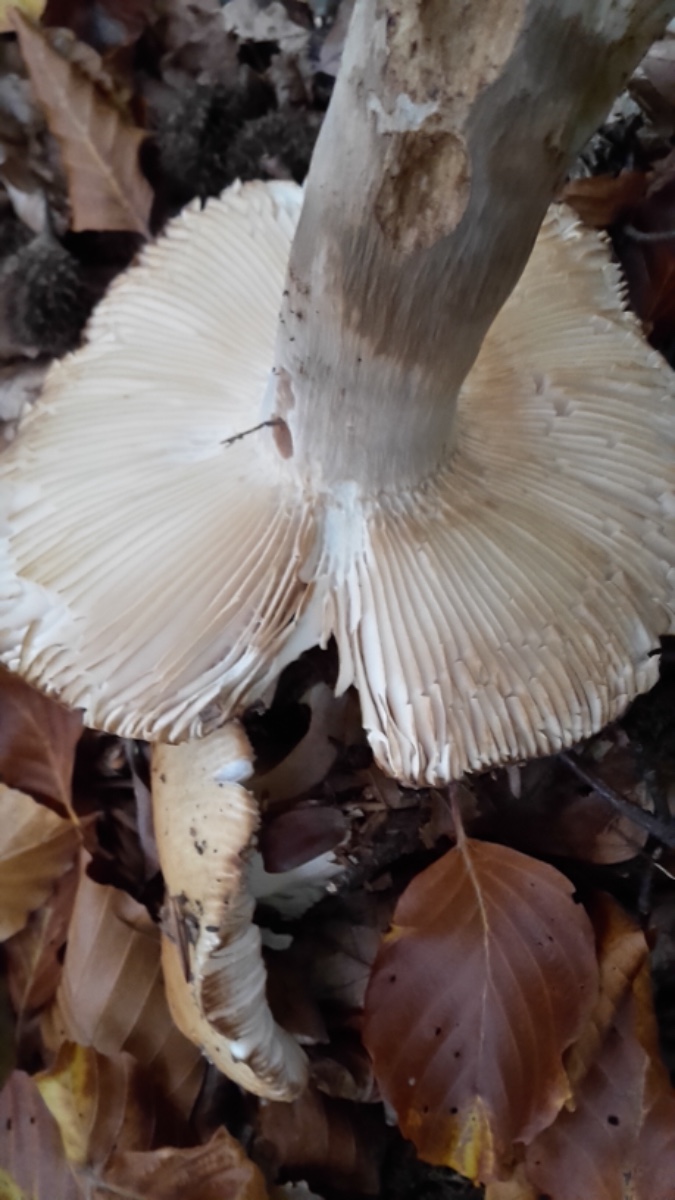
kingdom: Fungi
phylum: Basidiomycota
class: Agaricomycetes
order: Russulales
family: Russulaceae
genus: Russula
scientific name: Russula illota
